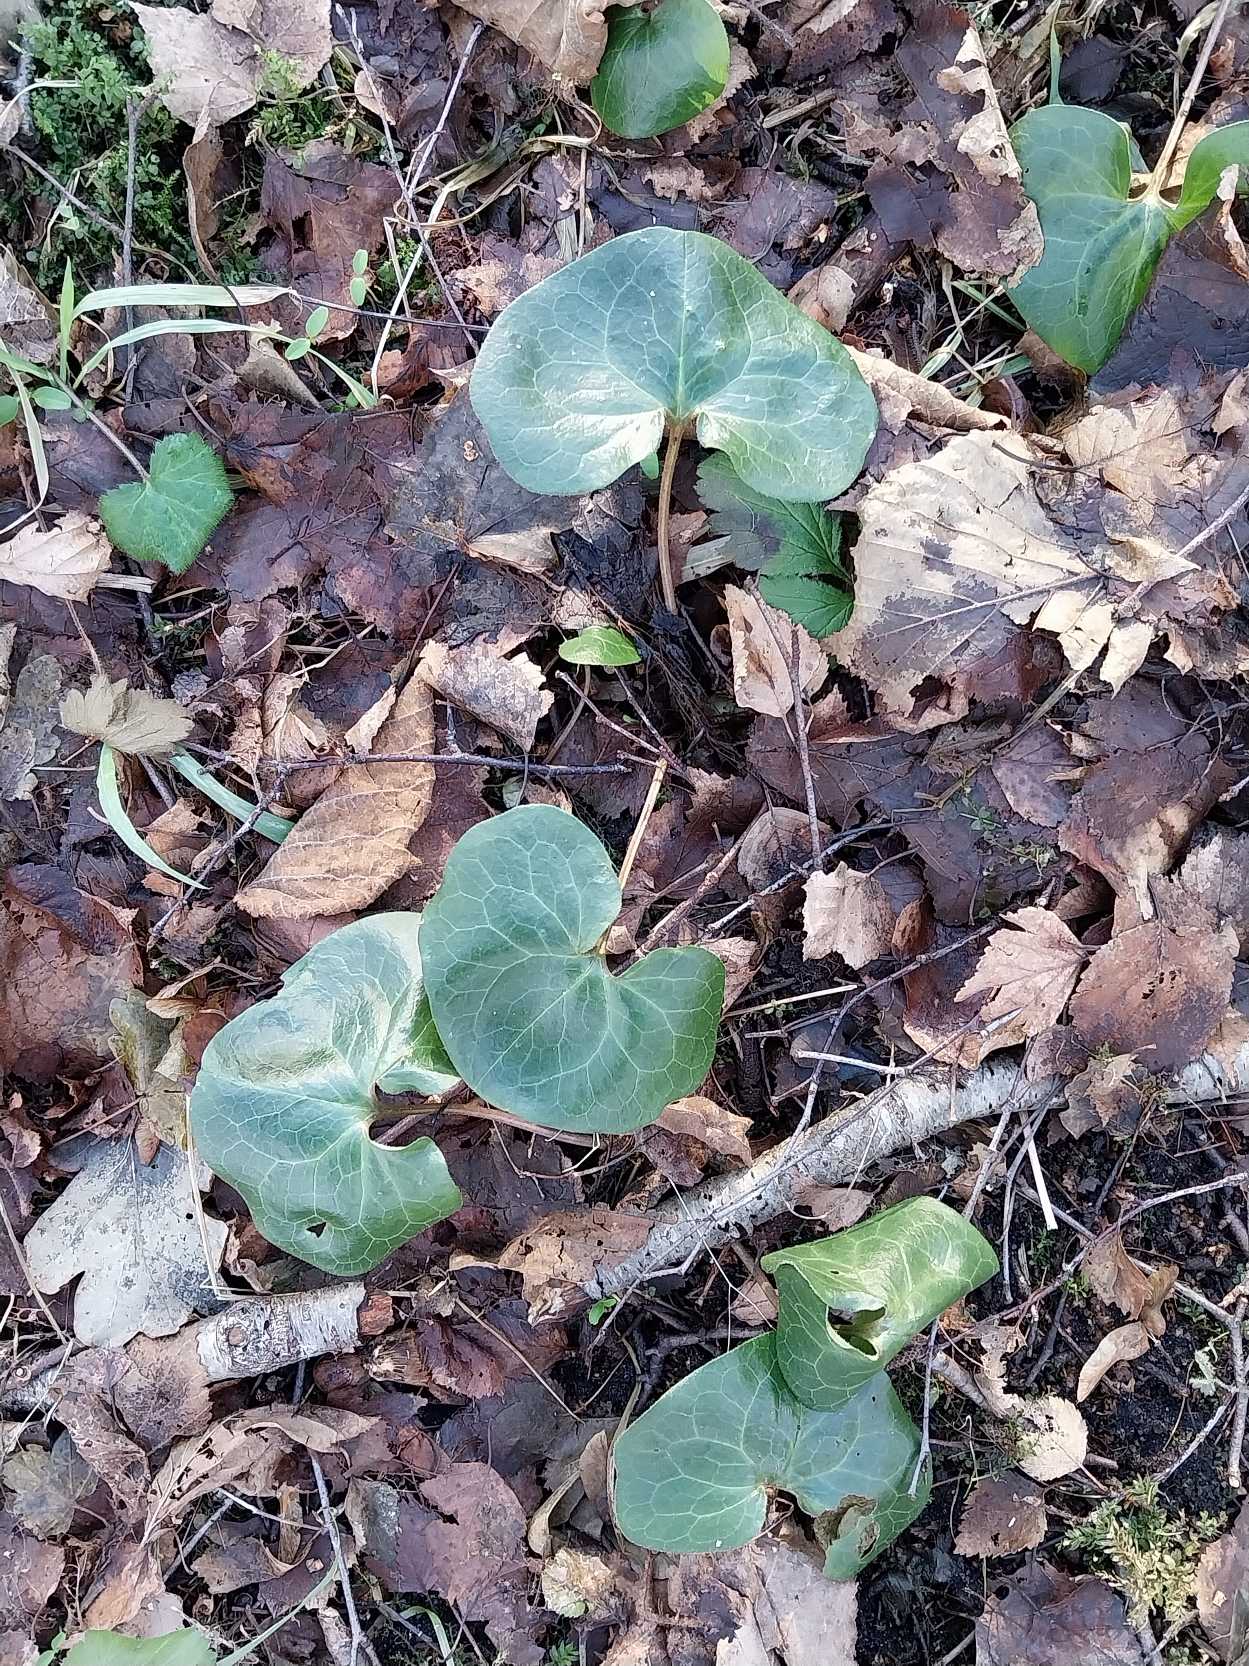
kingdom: Plantae
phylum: Tracheophyta
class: Magnoliopsida
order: Piperales
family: Aristolochiaceae
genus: Asarum
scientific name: Asarum europaeum
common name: Hasselurt
